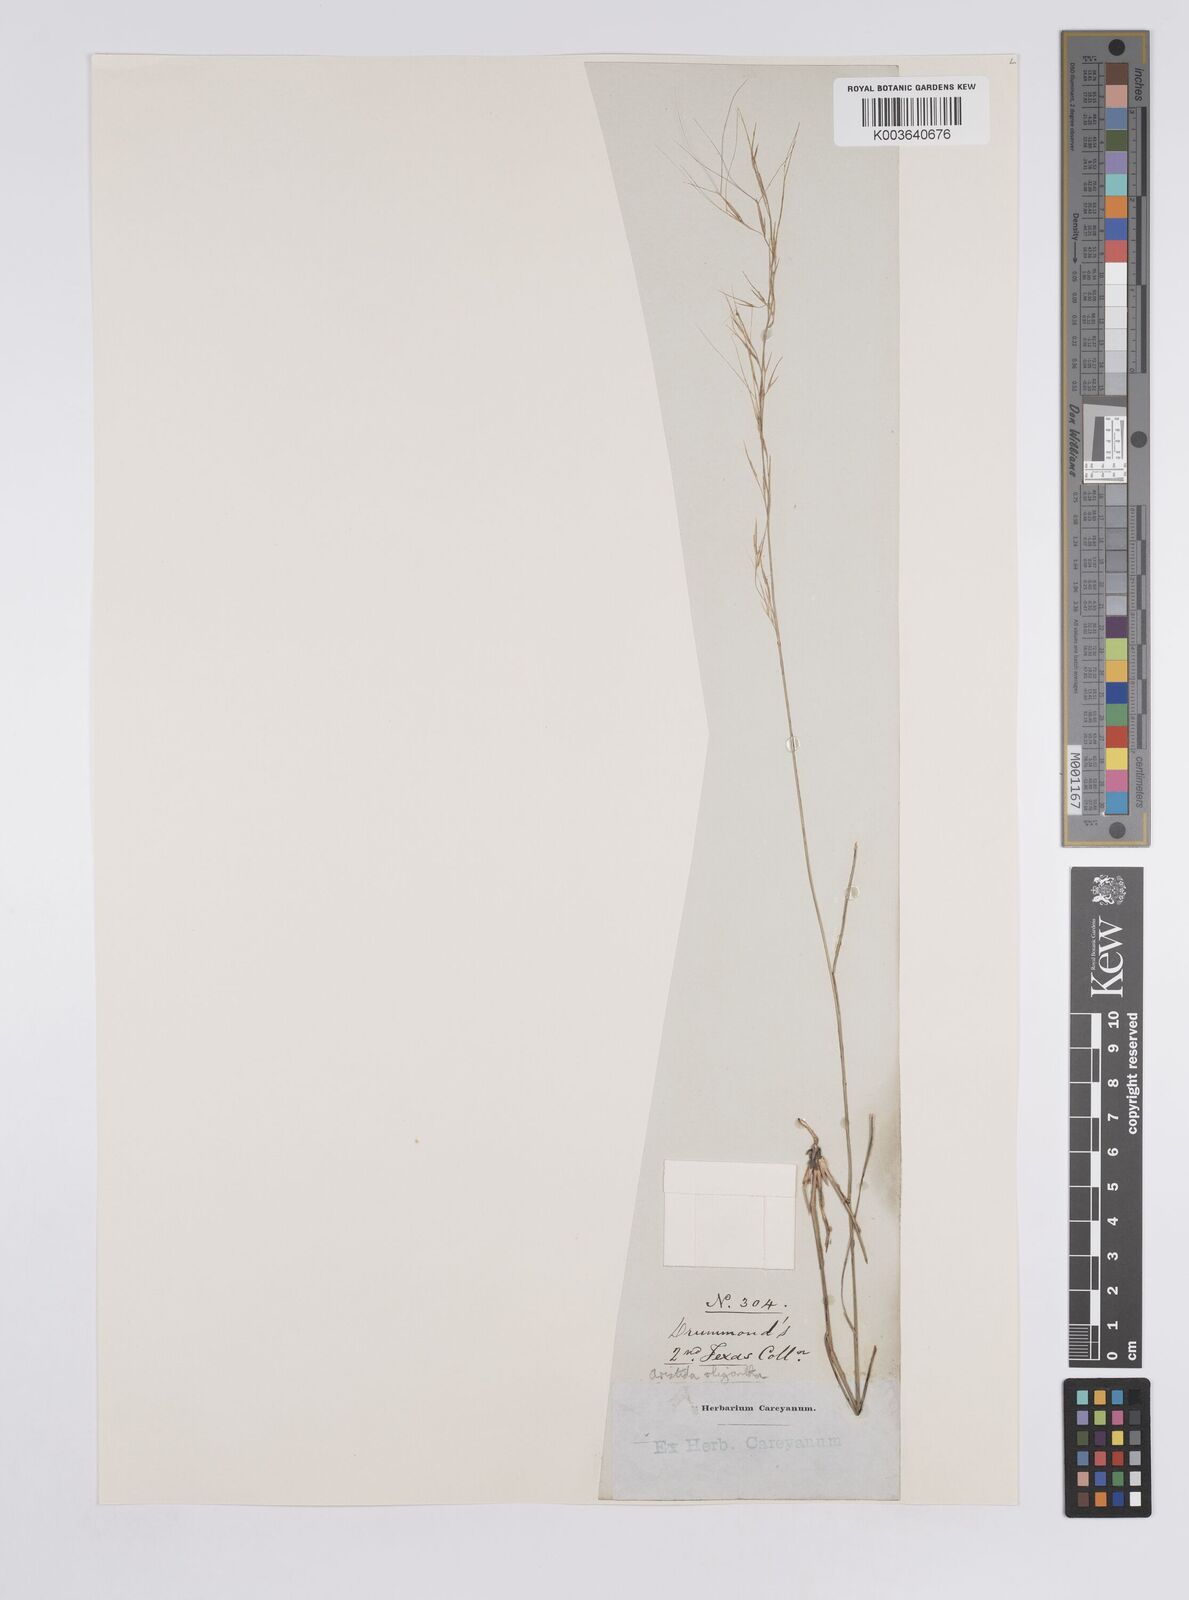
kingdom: Plantae
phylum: Tracheophyta
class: Liliopsida
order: Poales
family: Poaceae
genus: Aristida
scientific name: Aristida oligantha
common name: Few-flowered aristida
